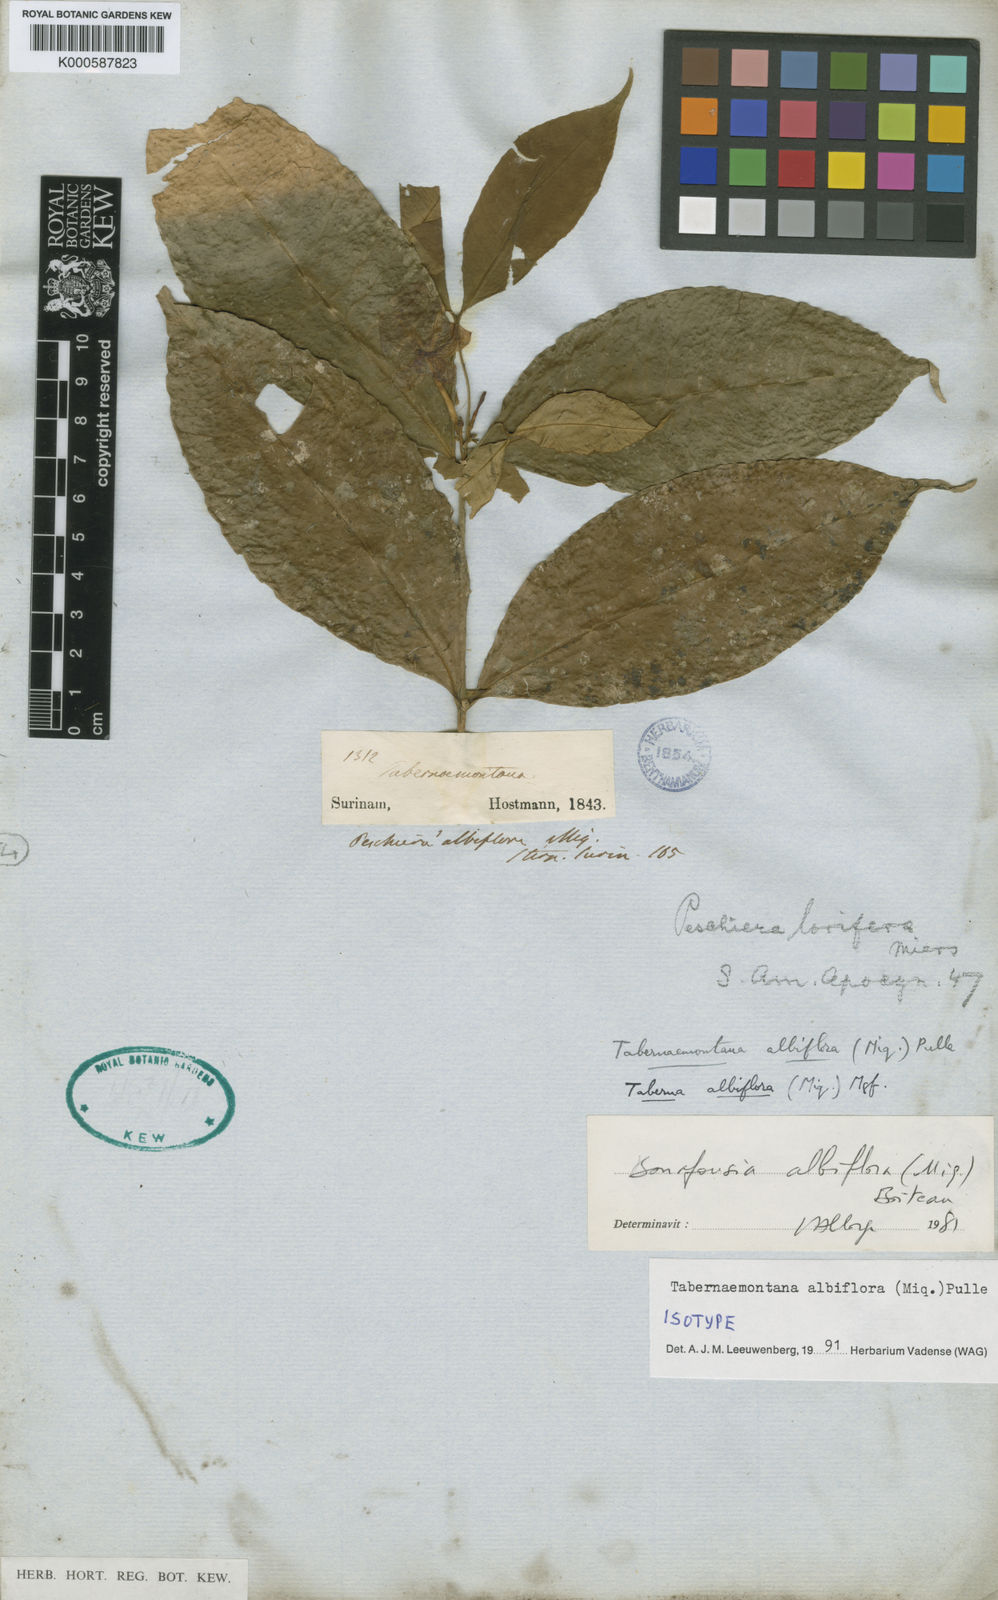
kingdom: Plantae
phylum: Tracheophyta
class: Magnoliopsida
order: Gentianales
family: Apocynaceae
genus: Tabernaemontana
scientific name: Tabernaemontana albiflora
